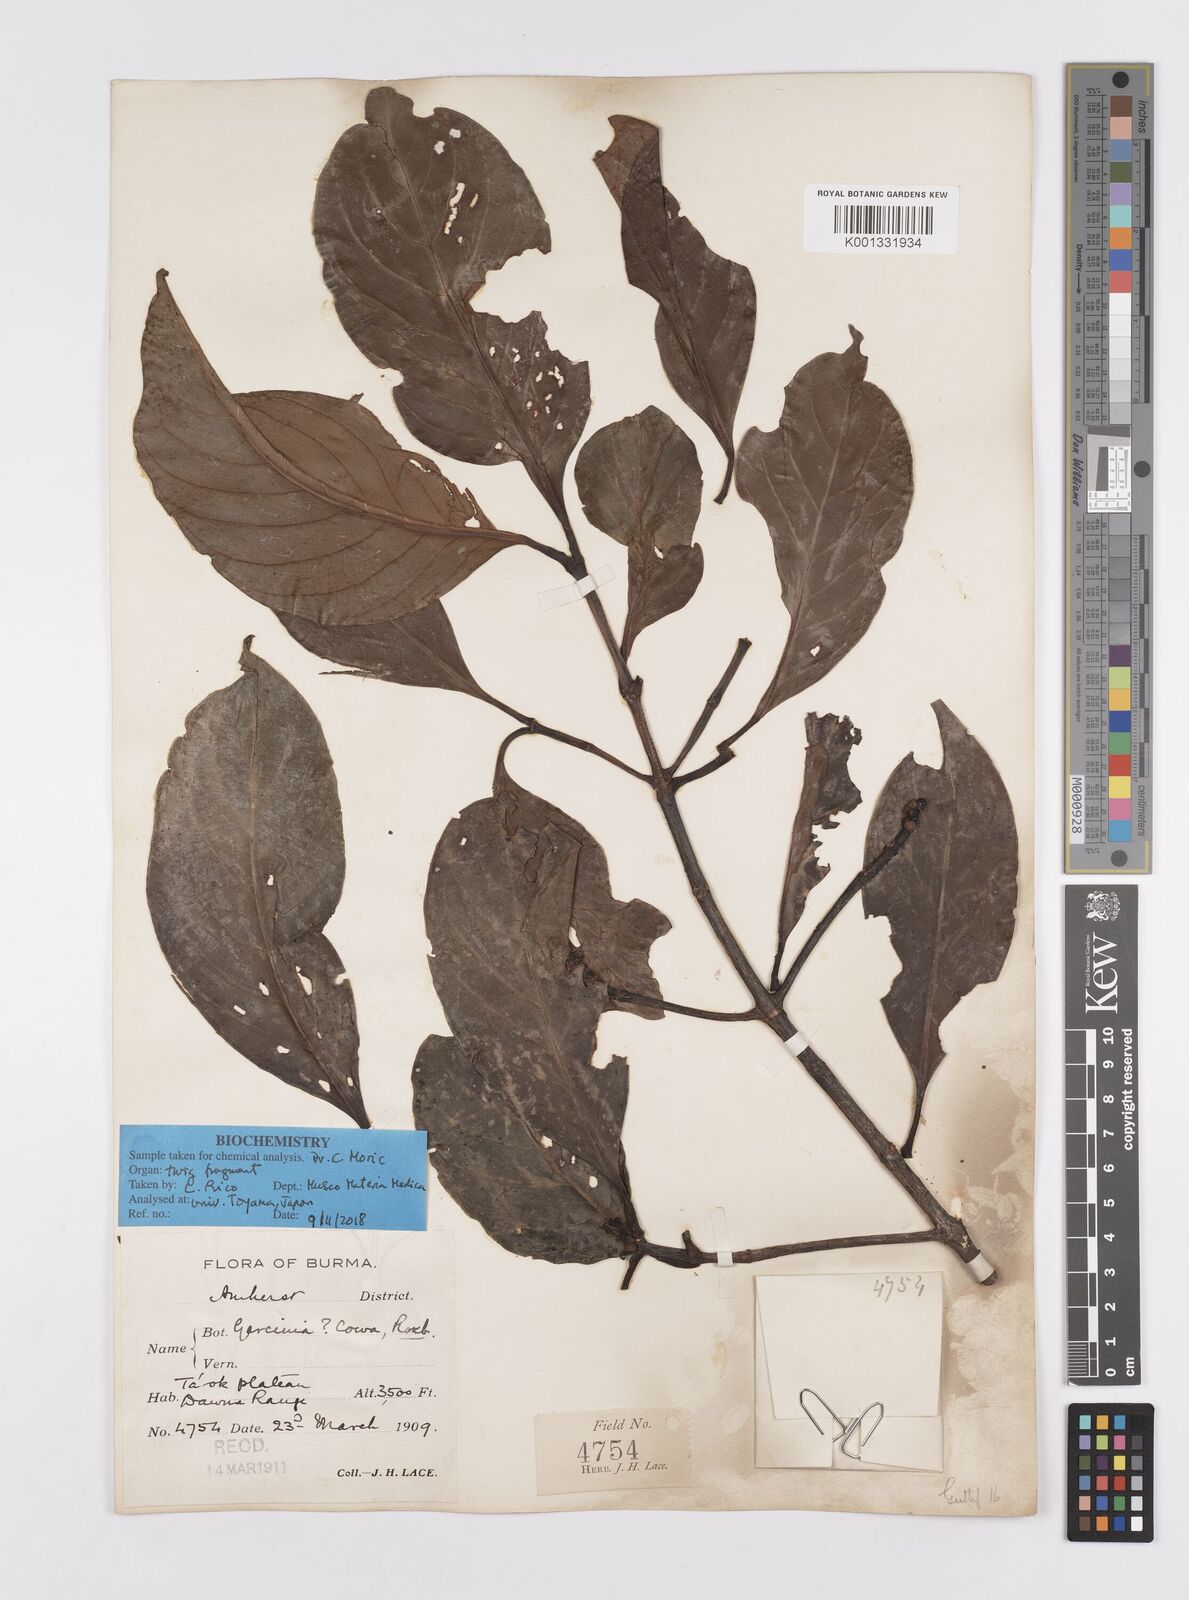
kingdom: Plantae
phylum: Tracheophyta
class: Magnoliopsida
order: Malpighiales
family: Clusiaceae
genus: Garcinia
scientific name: Garcinia
